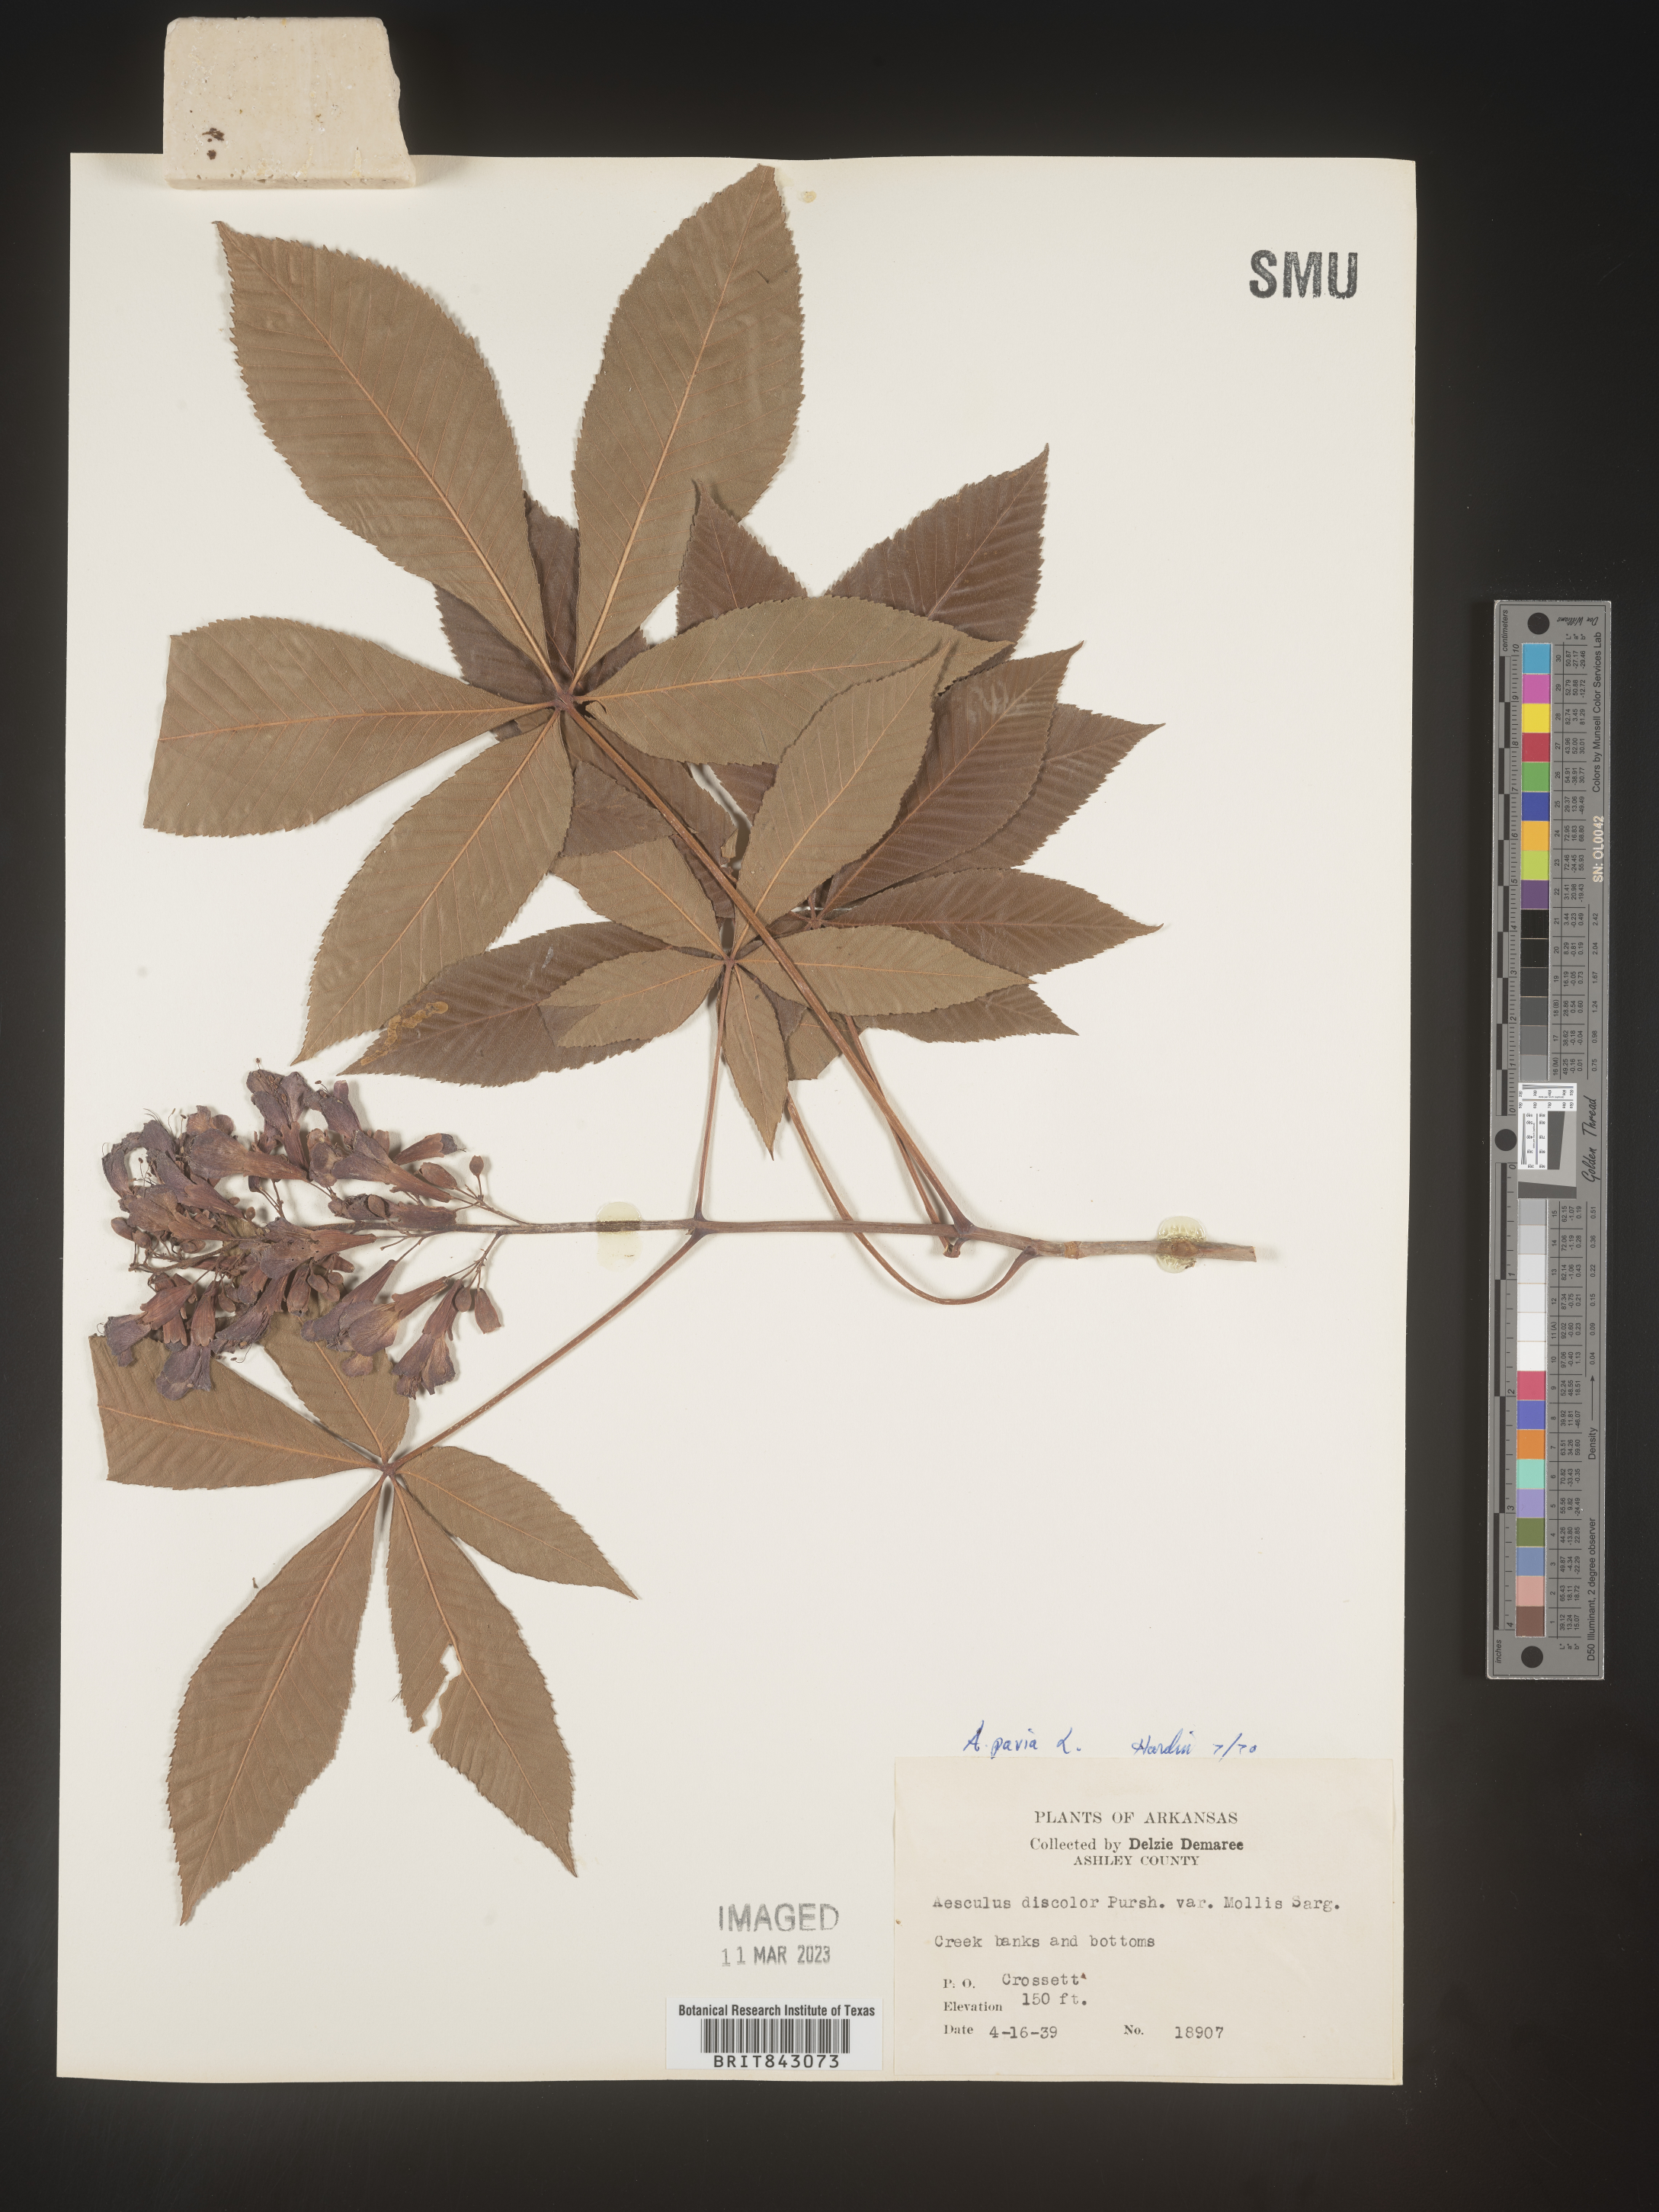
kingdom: Plantae
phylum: Tracheophyta
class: Magnoliopsida
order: Sapindales
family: Sapindaceae
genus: Aesculus
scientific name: Aesculus pavia
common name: Red buckeye
